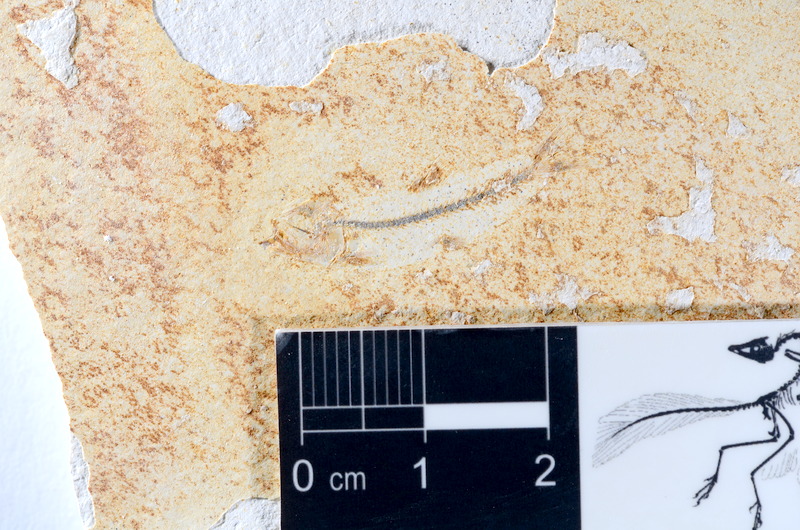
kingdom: Animalia
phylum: Chordata
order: Salmoniformes
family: Orthogonikleithridae
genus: Orthogonikleithrus
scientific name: Orthogonikleithrus hoelli
